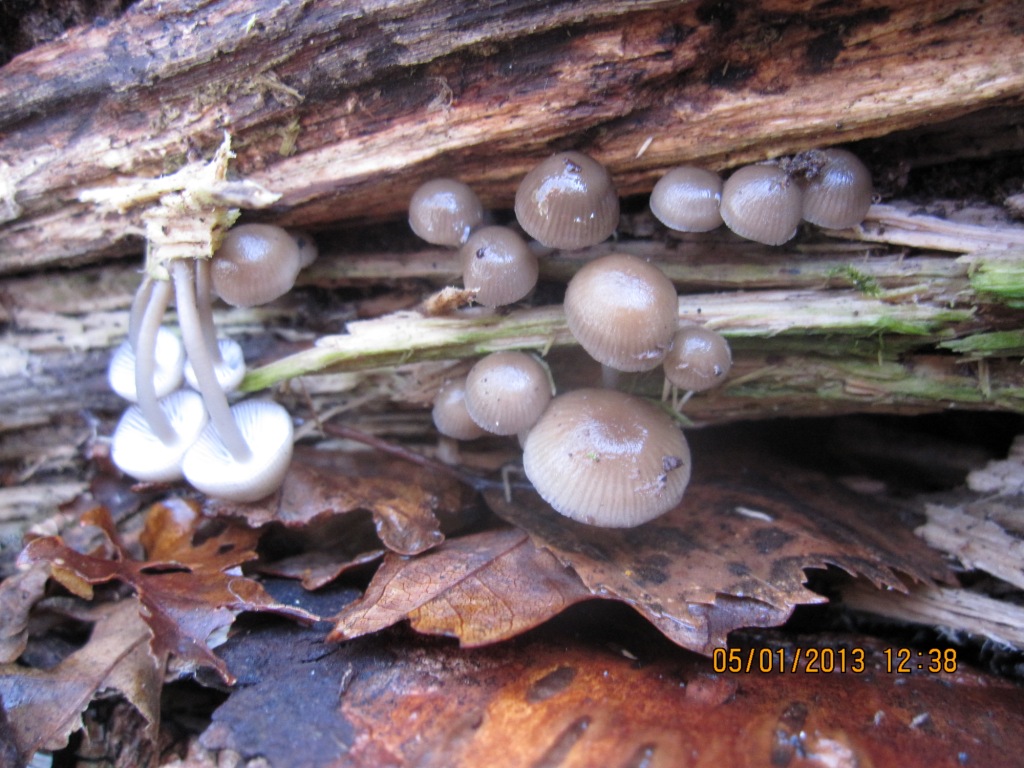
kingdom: Fungi
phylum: Basidiomycota
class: Agaricomycetes
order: Agaricales
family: Mycenaceae
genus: Mycena
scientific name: Mycena tintinnabulum
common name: vinter-huesvamp
